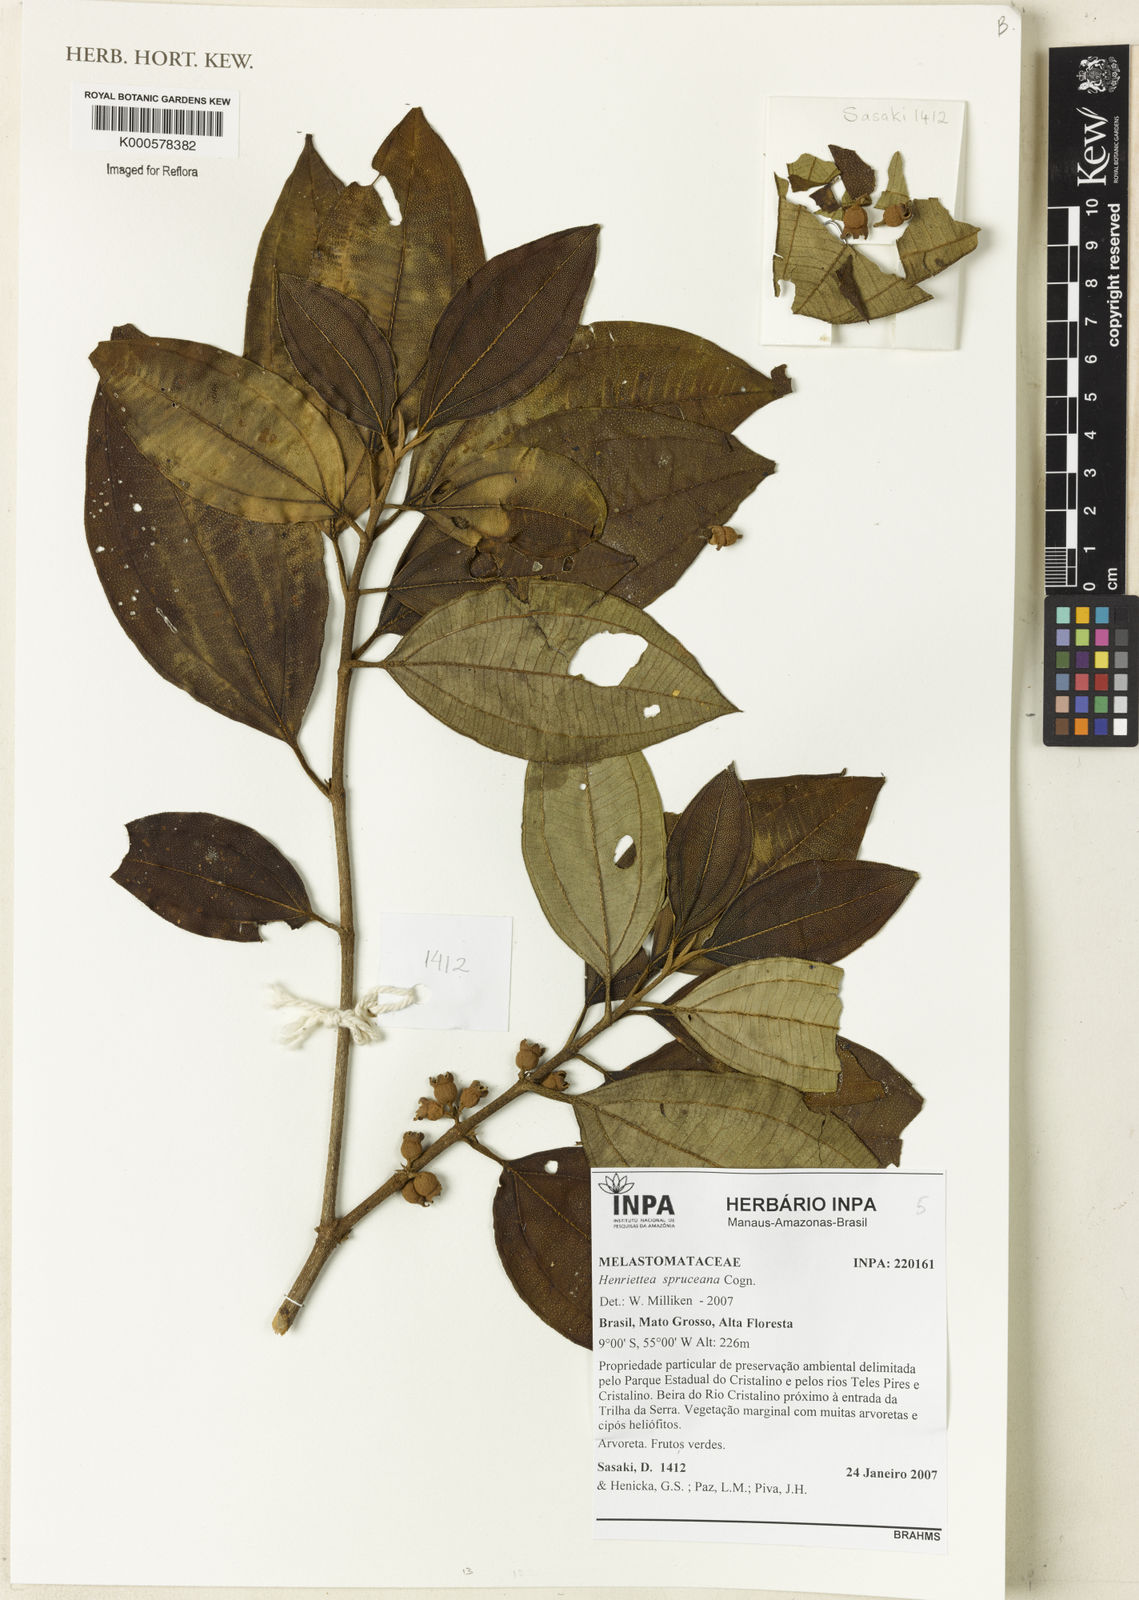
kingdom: Plantae
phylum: Tracheophyta
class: Magnoliopsida
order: Myrtales
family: Melastomataceae
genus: Henriettea
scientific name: Henriettea spruceana
